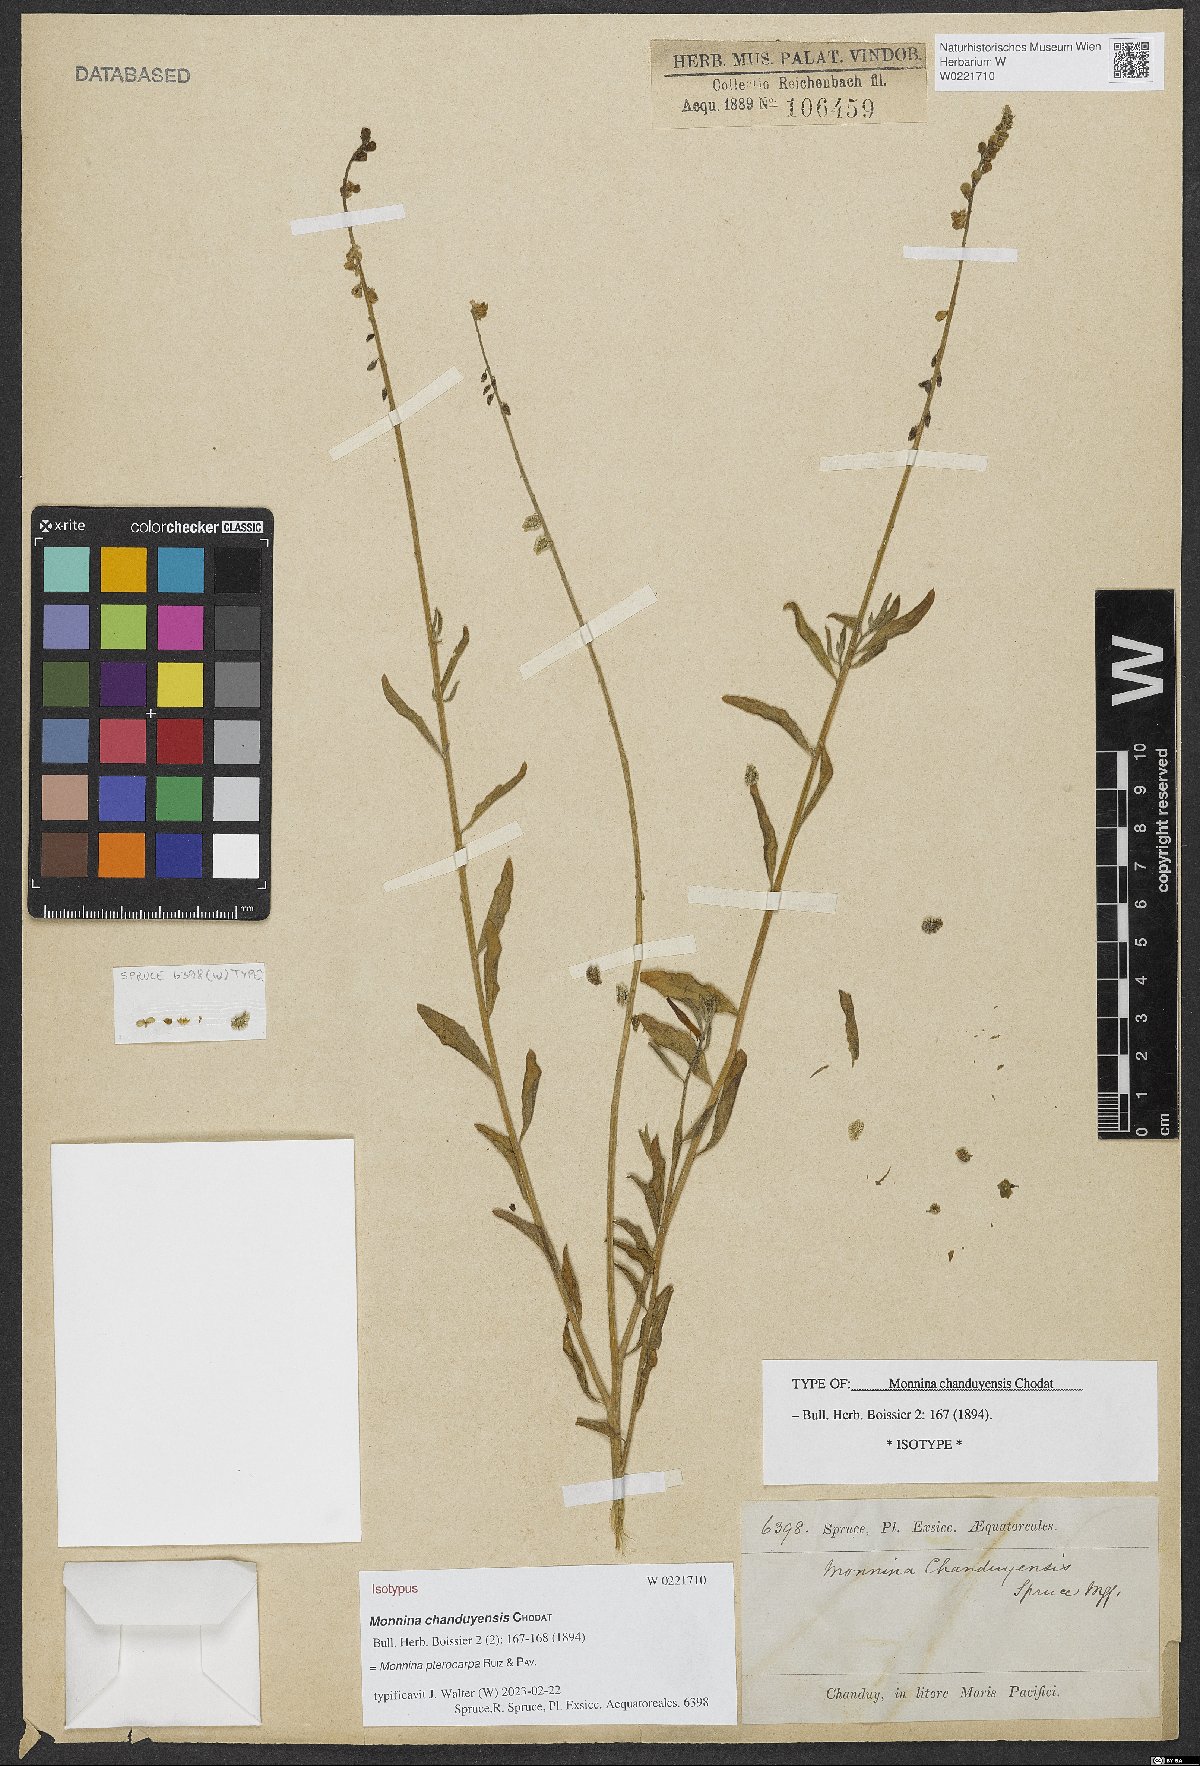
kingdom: Plantae
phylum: Tracheophyta
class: Magnoliopsida
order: Fabales
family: Polygalaceae
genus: Monnina
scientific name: Monnina pterocarpa
